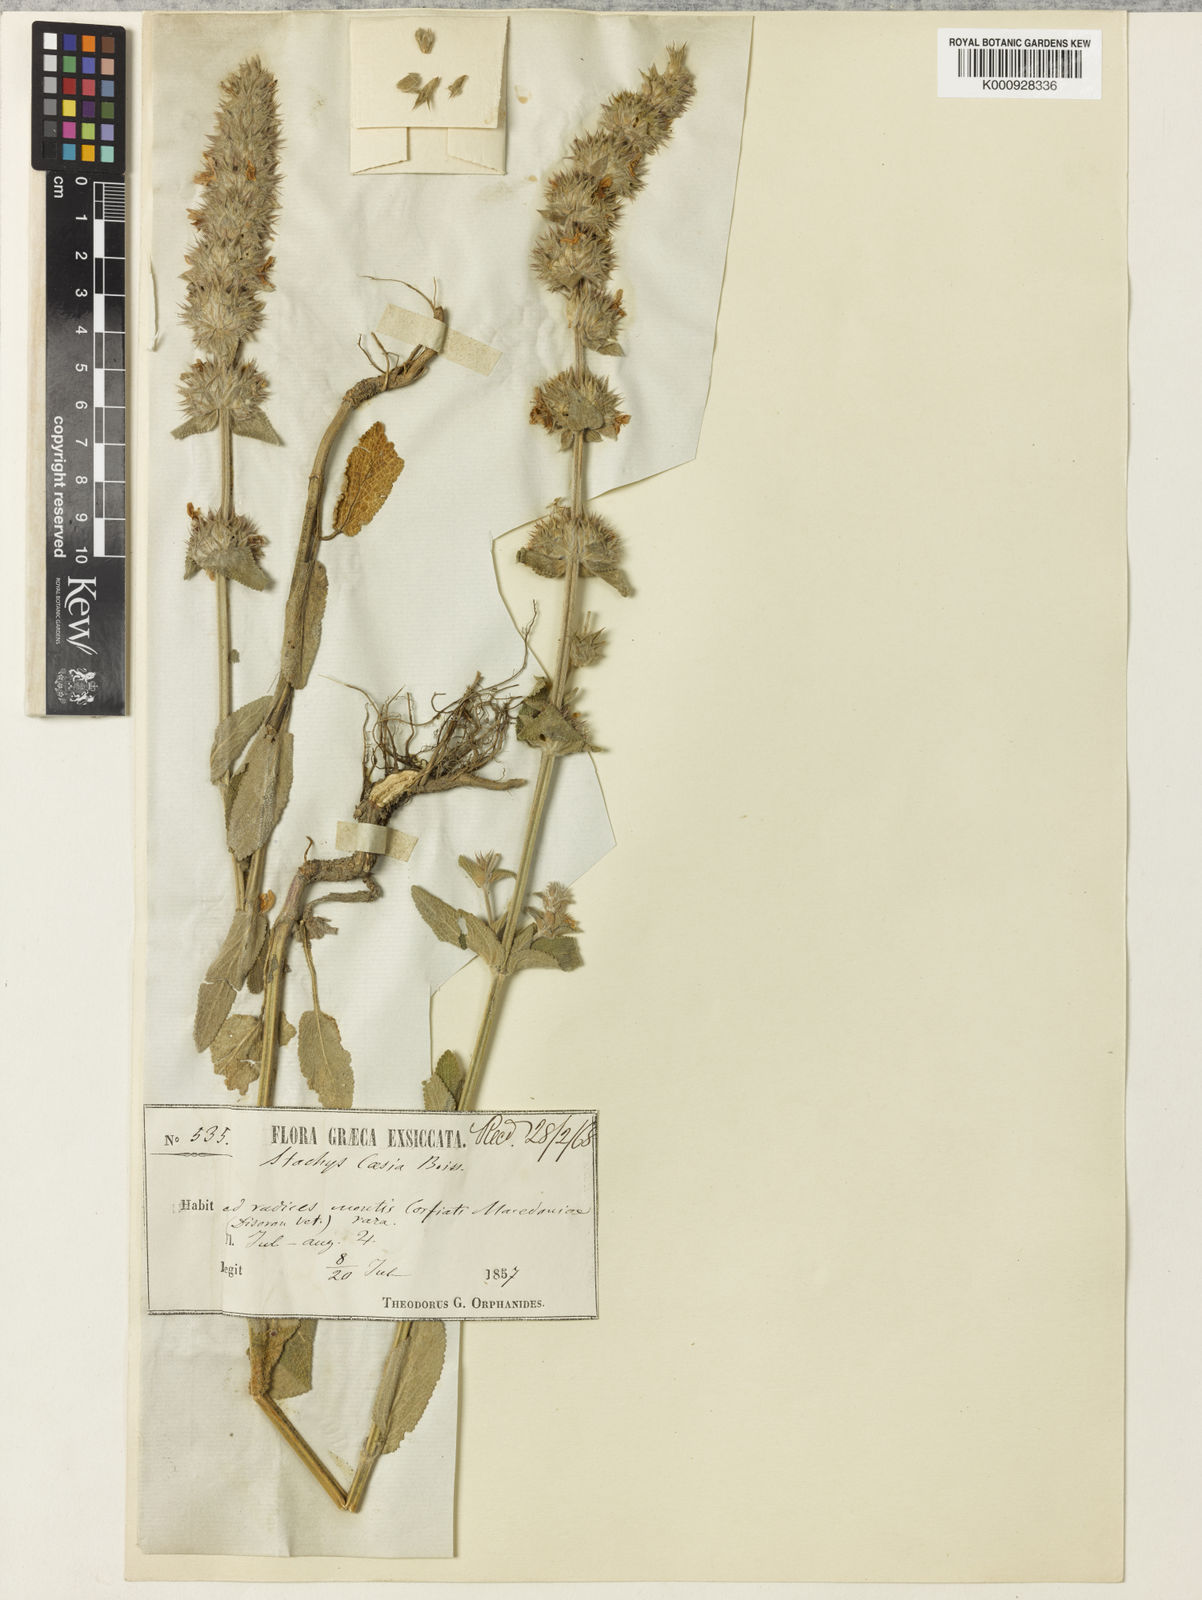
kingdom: Plantae
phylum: Tracheophyta
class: Magnoliopsida
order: Lamiales
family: Lamiaceae
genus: Stachys
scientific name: Stachys cretica
